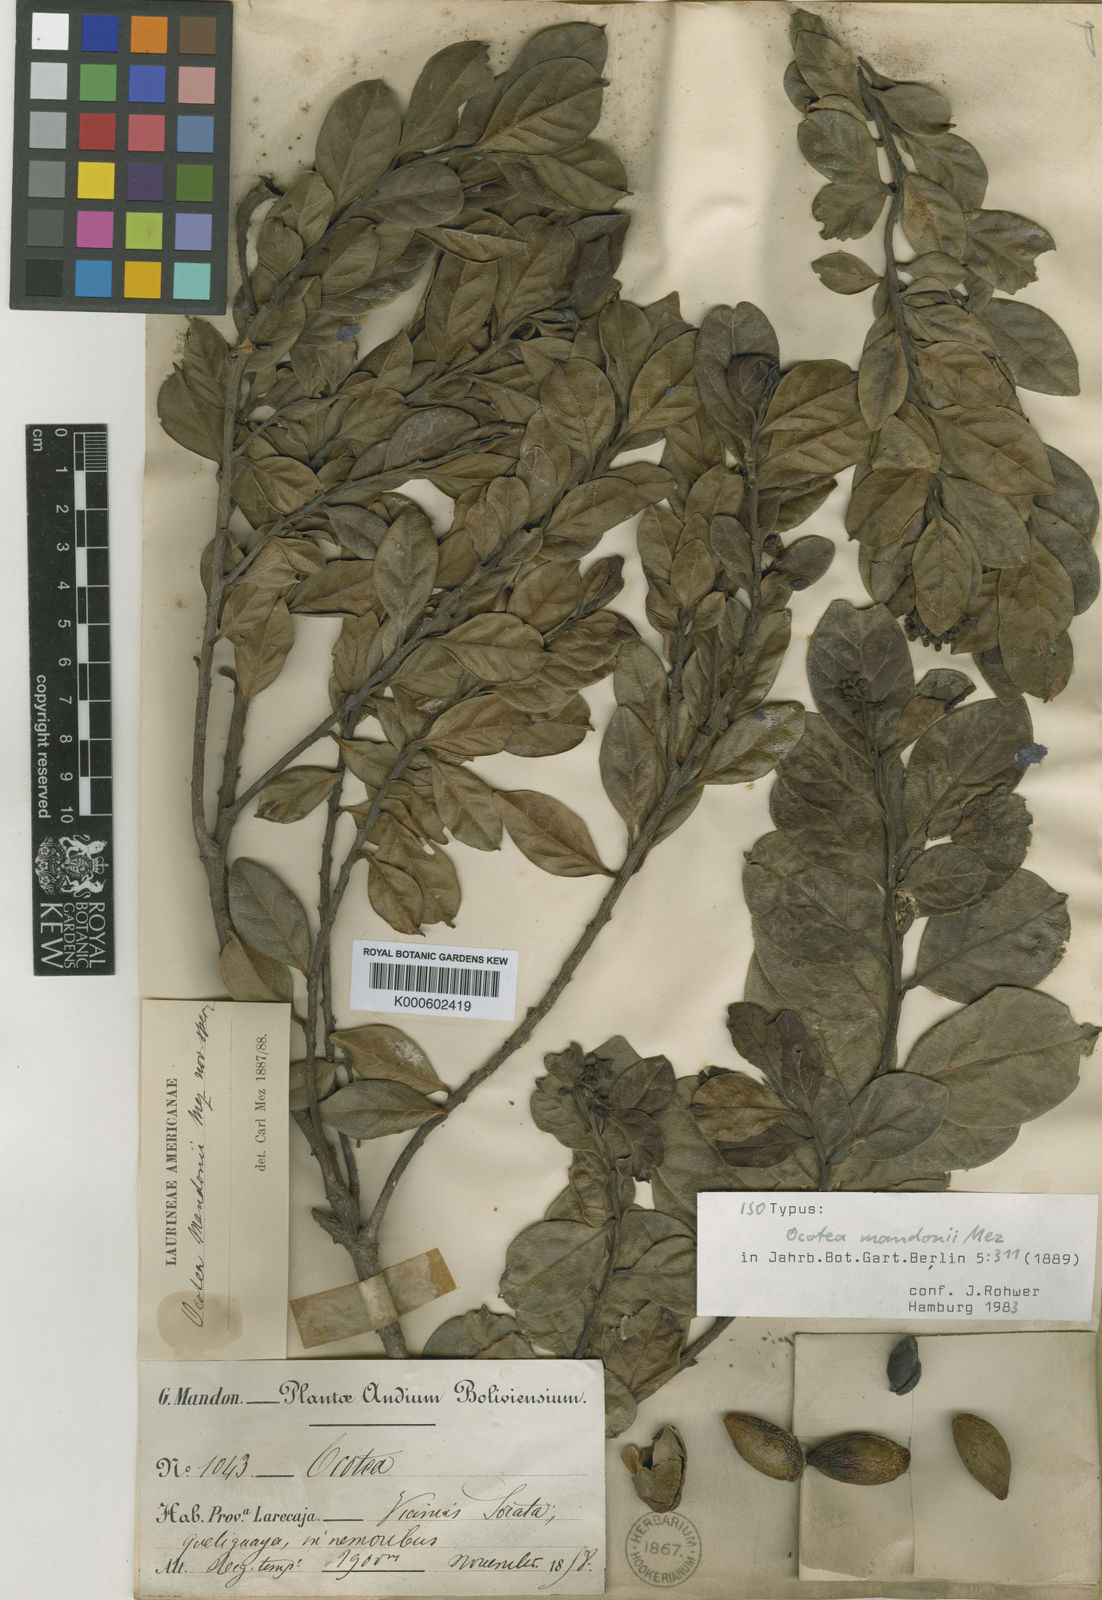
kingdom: Plantae
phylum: Tracheophyta
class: Magnoliopsida
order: Laurales
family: Lauraceae
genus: Ocotea
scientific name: Ocotea mandonii
